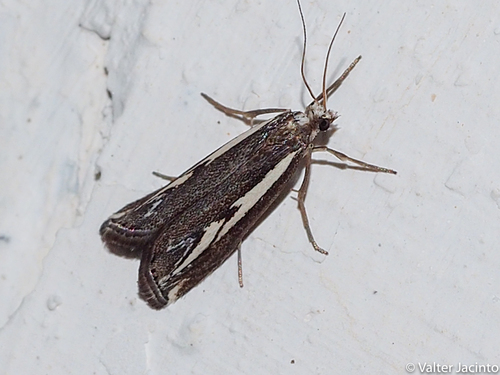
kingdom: Animalia
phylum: Arthropoda
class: Insecta
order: Lepidoptera
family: Crambidae
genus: Catoptria
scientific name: Catoptria staudingeri
